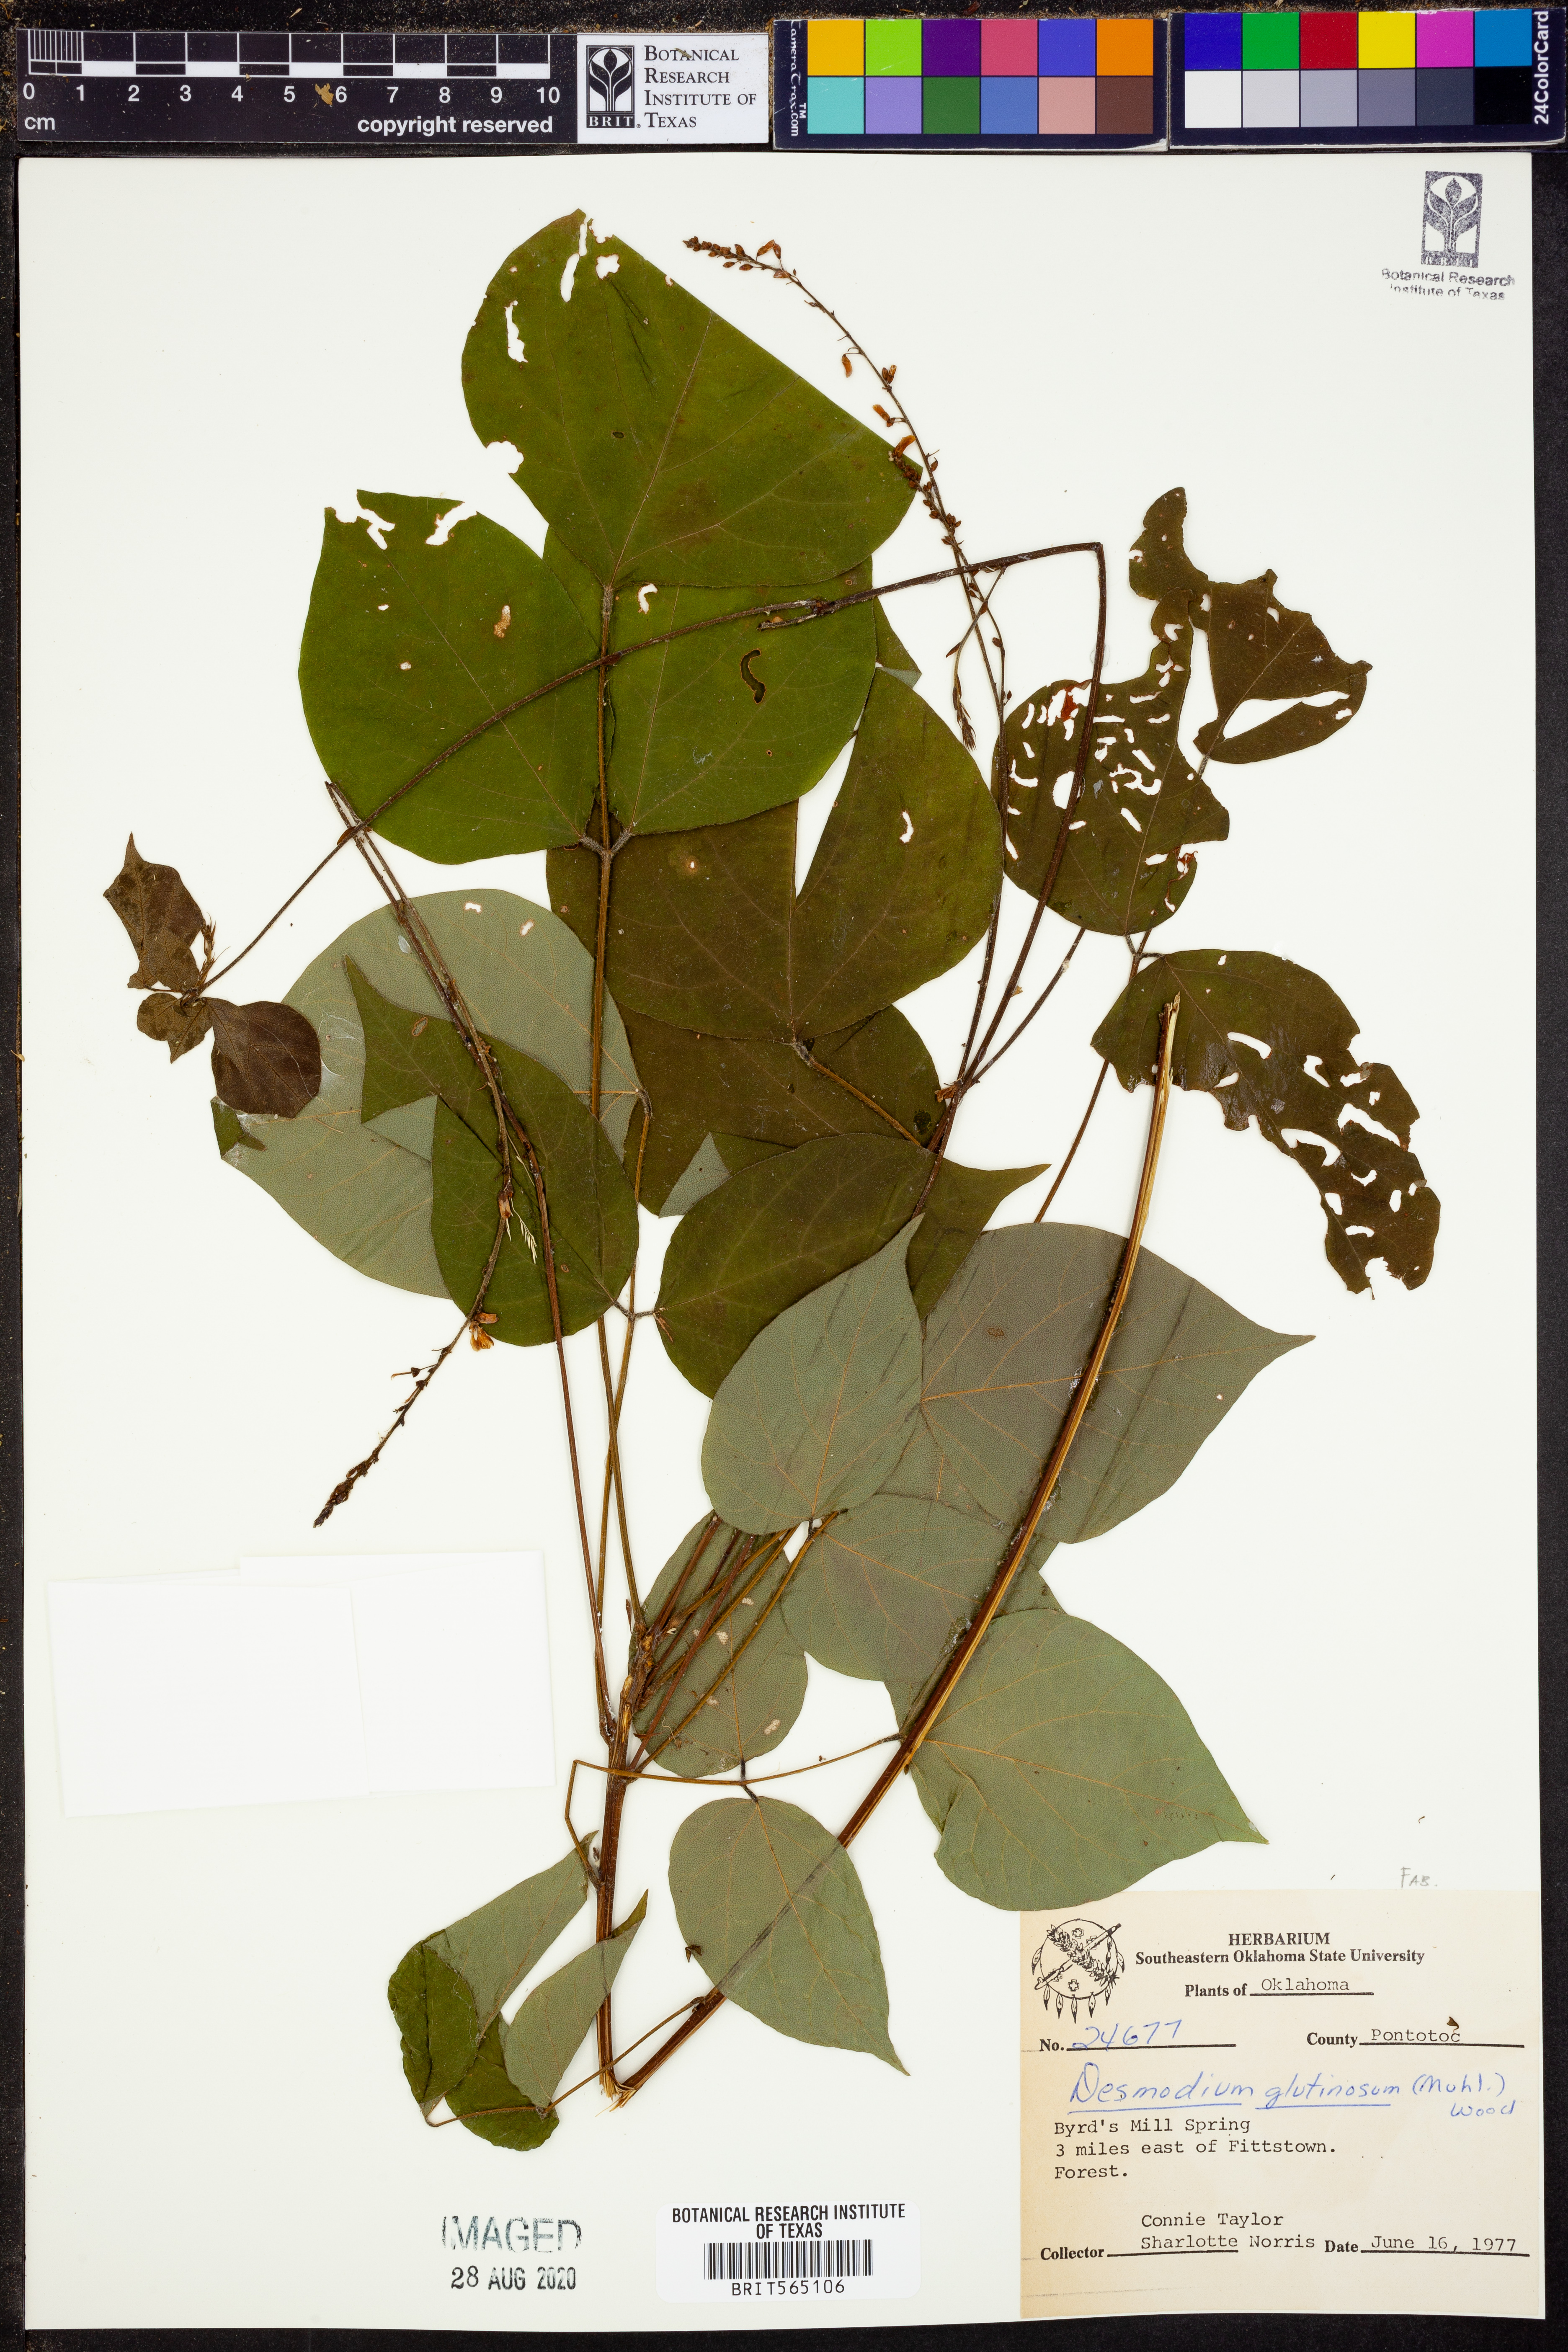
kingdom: Plantae
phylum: Tracheophyta
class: Magnoliopsida
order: Fabales
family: Fabaceae
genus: Hylodesmum
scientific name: Hylodesmum glutinosum
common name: Clustered-leaved tick-trefoil
